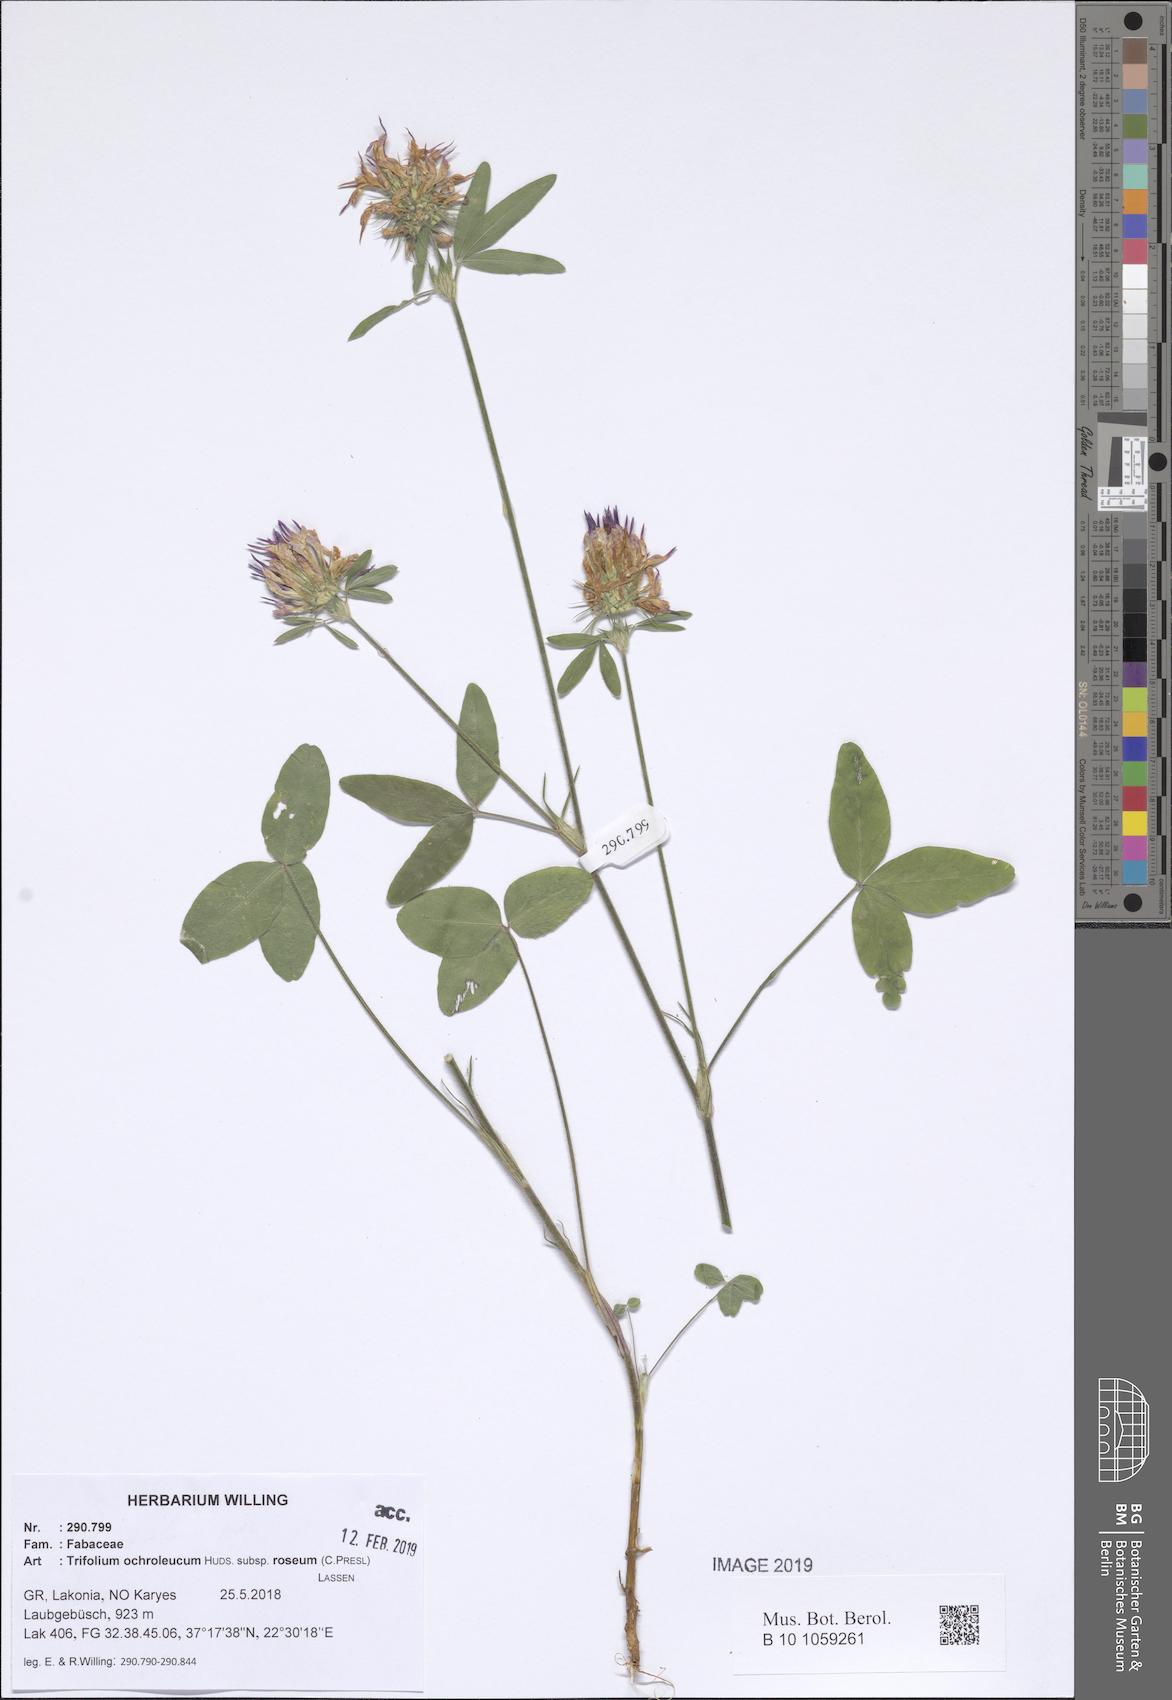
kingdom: Plantae
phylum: Tracheophyta
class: Magnoliopsida
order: Fabales
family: Fabaceae
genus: Trifolium
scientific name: Trifolium ochroleucon
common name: Sulphur clover
